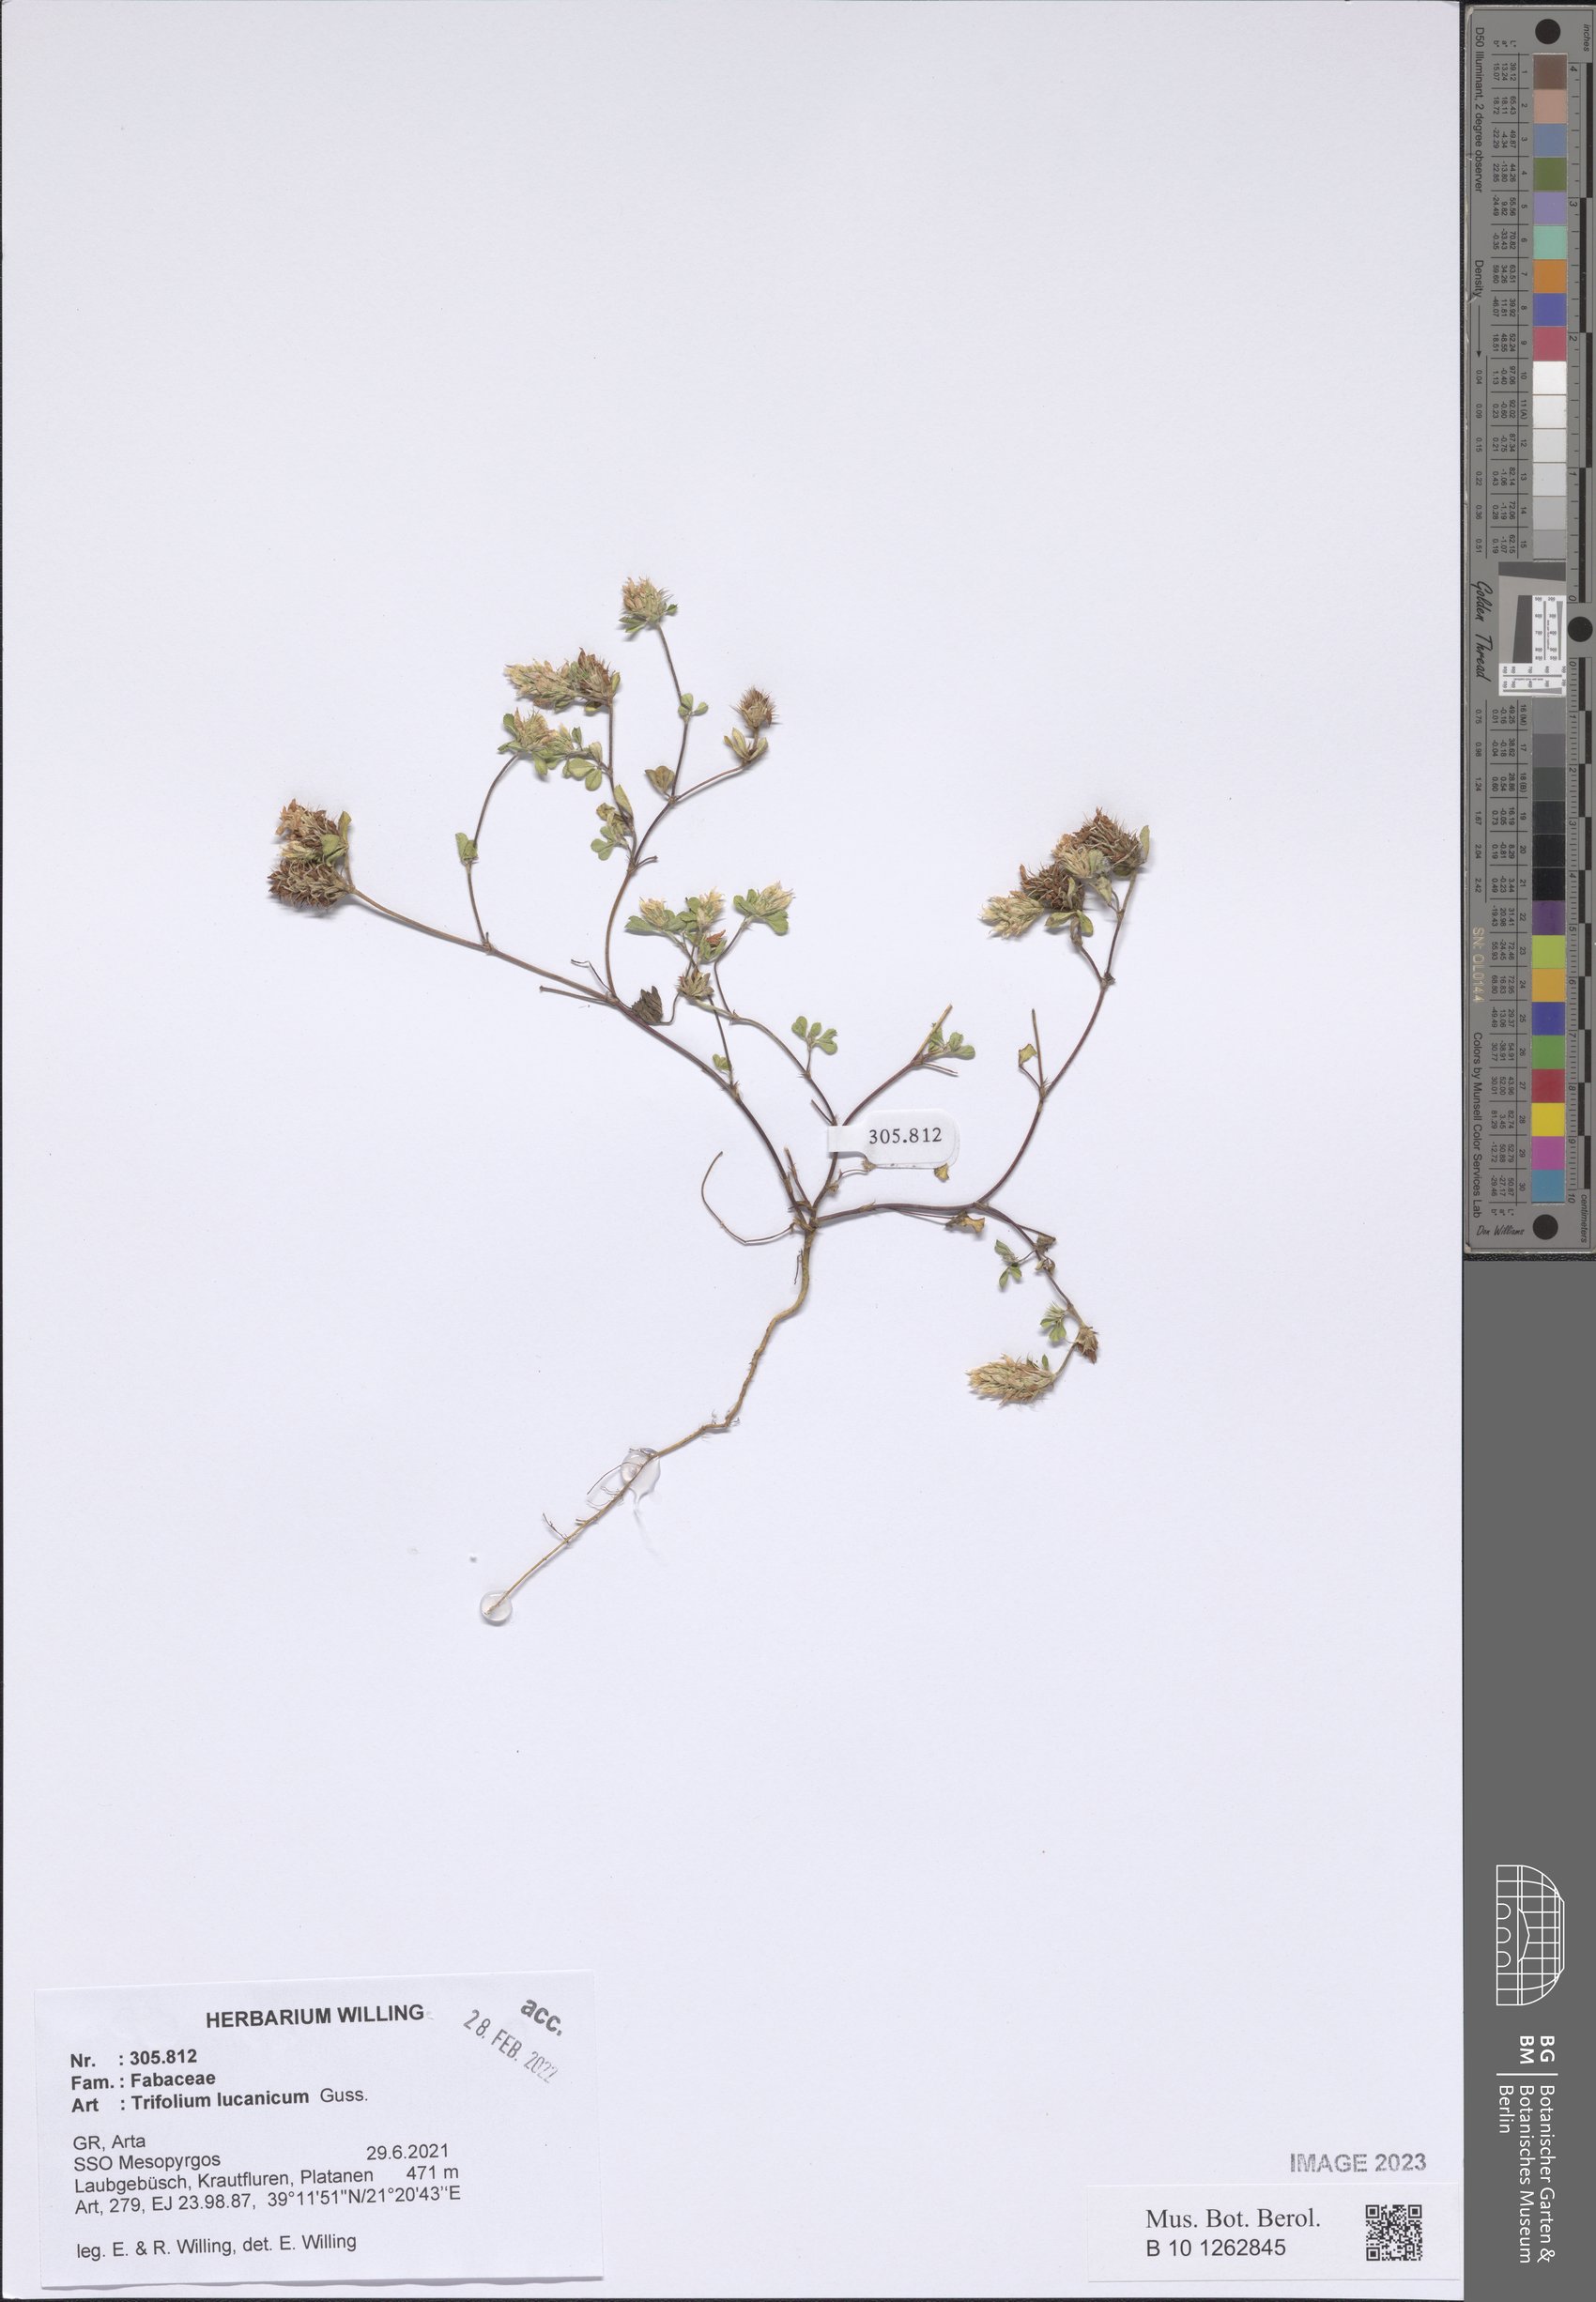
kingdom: Plantae
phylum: Tracheophyta
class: Magnoliopsida
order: Fabales
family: Fabaceae
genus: Trifolium
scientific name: Trifolium lucanicum
